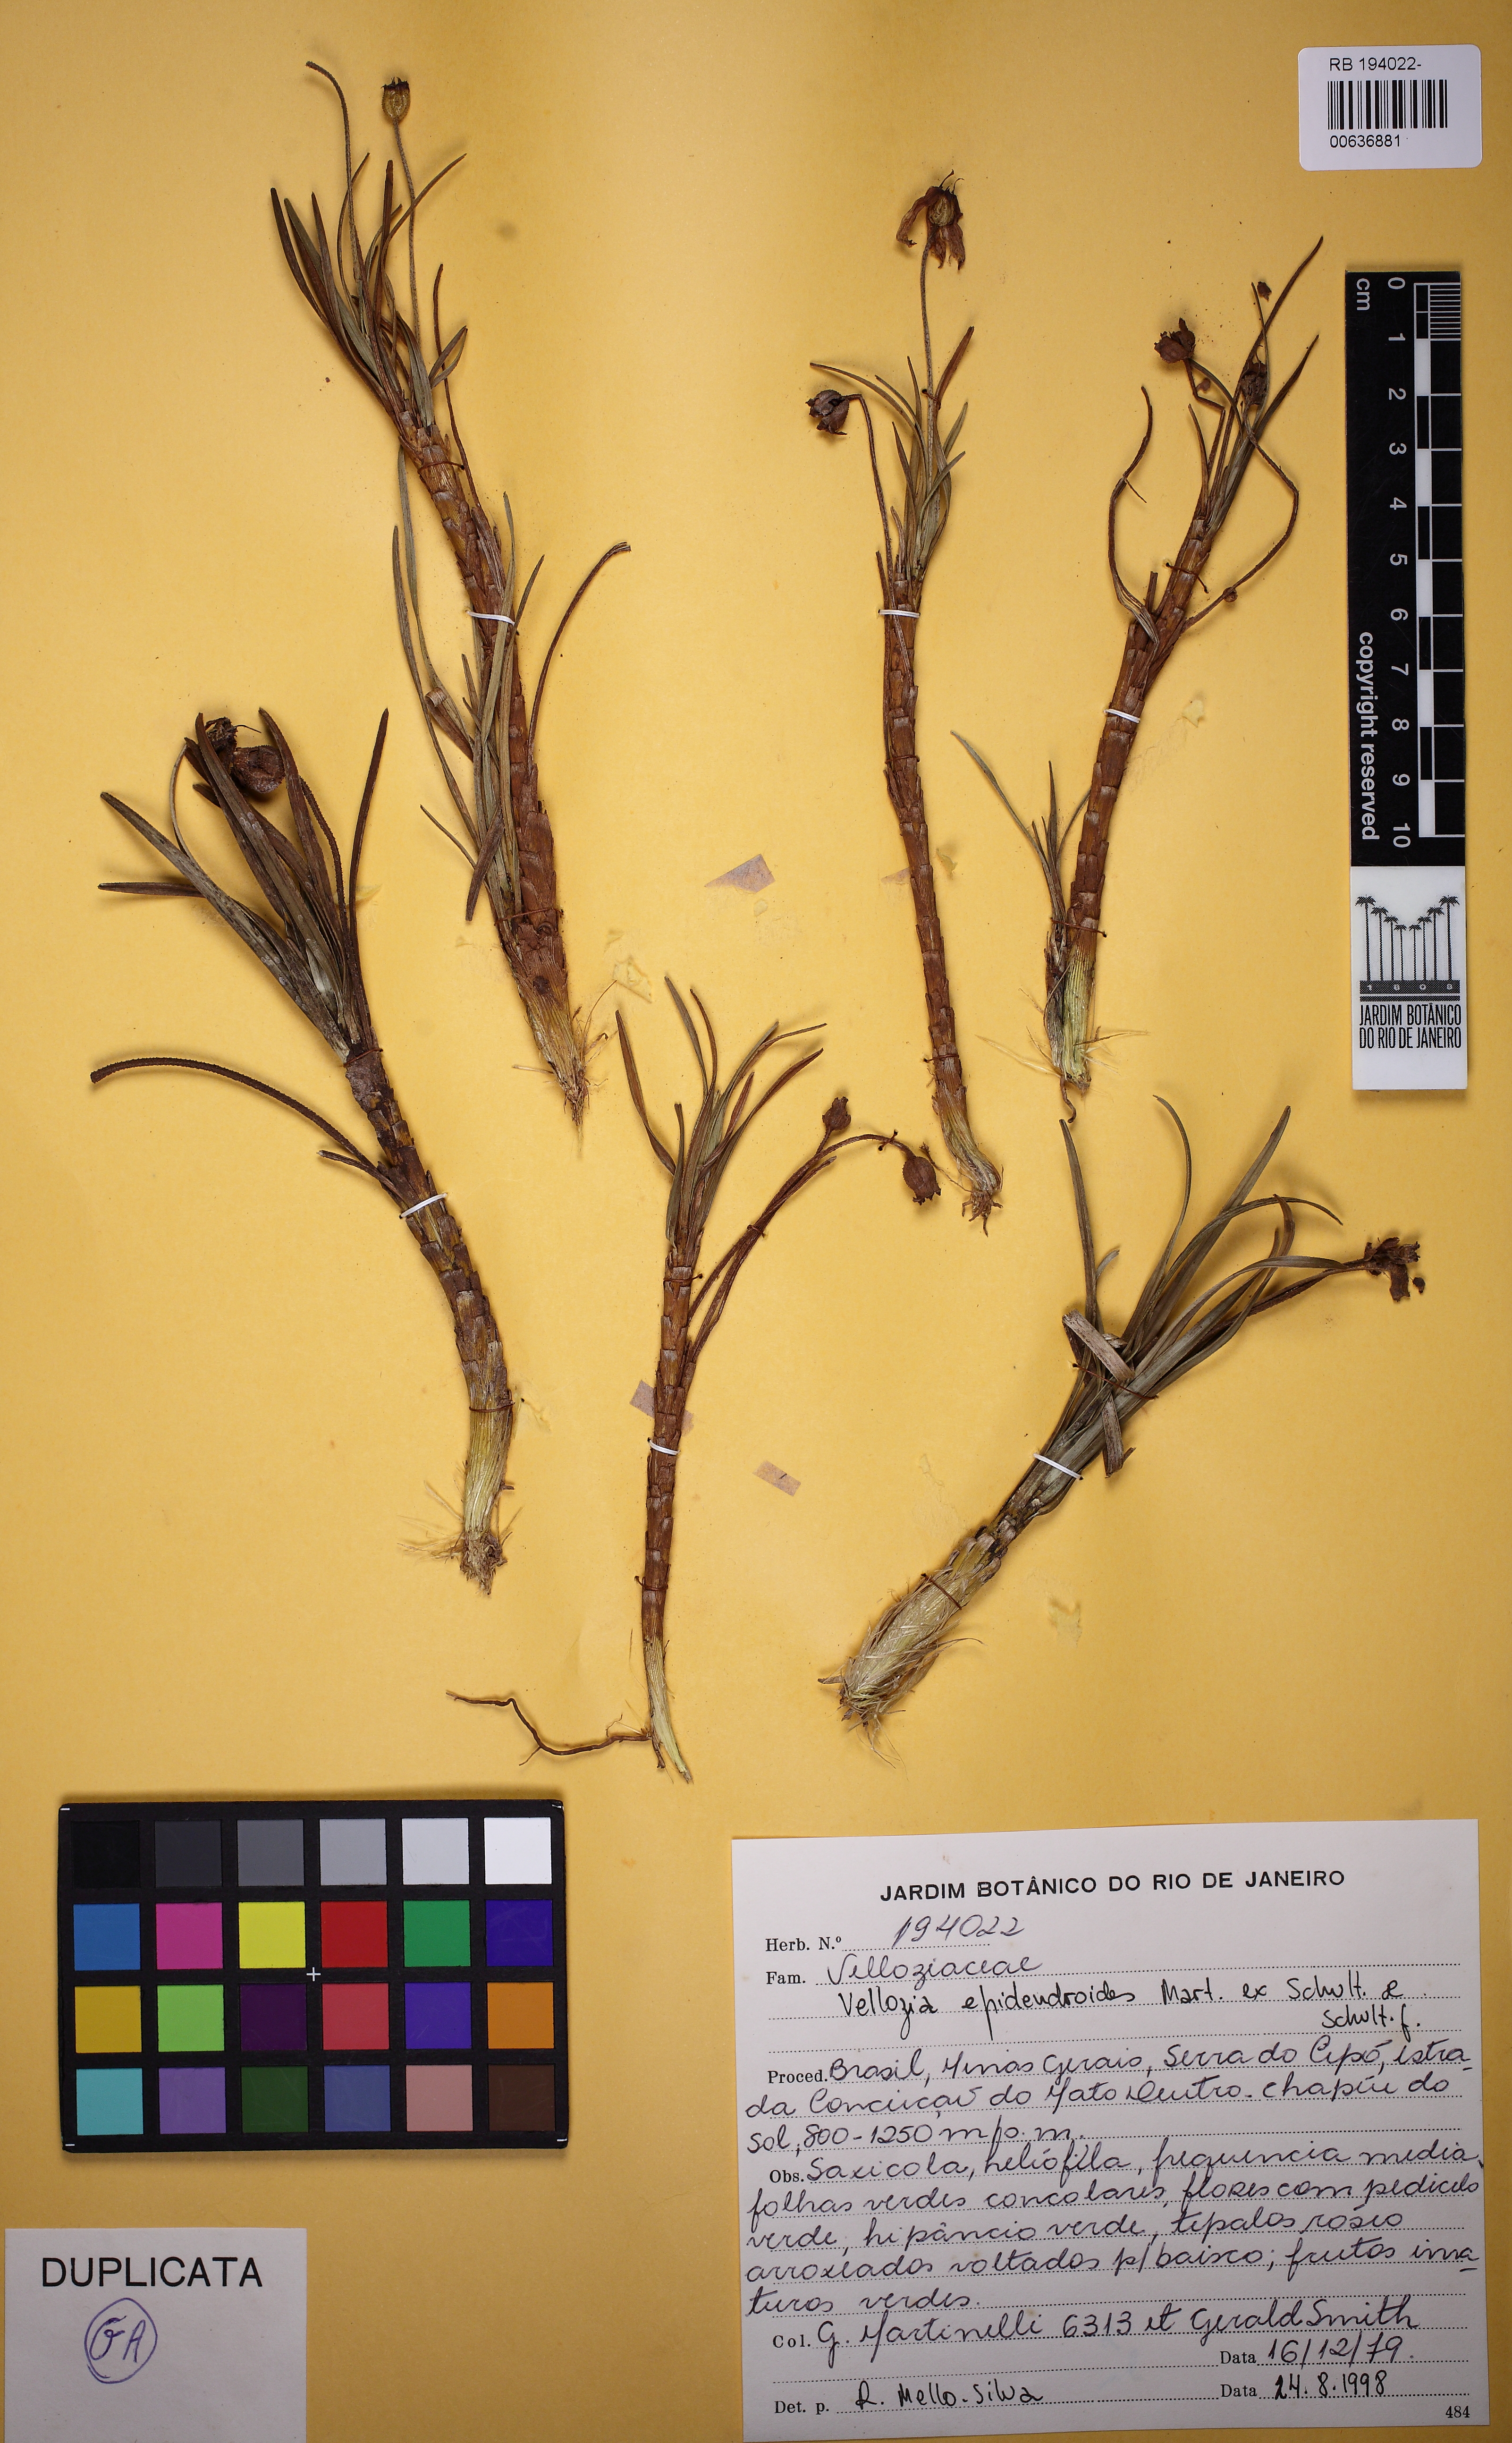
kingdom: Plantae
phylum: Tracheophyta
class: Liliopsida
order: Pandanales
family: Velloziaceae
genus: Vellozia
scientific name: Vellozia epidendroides
